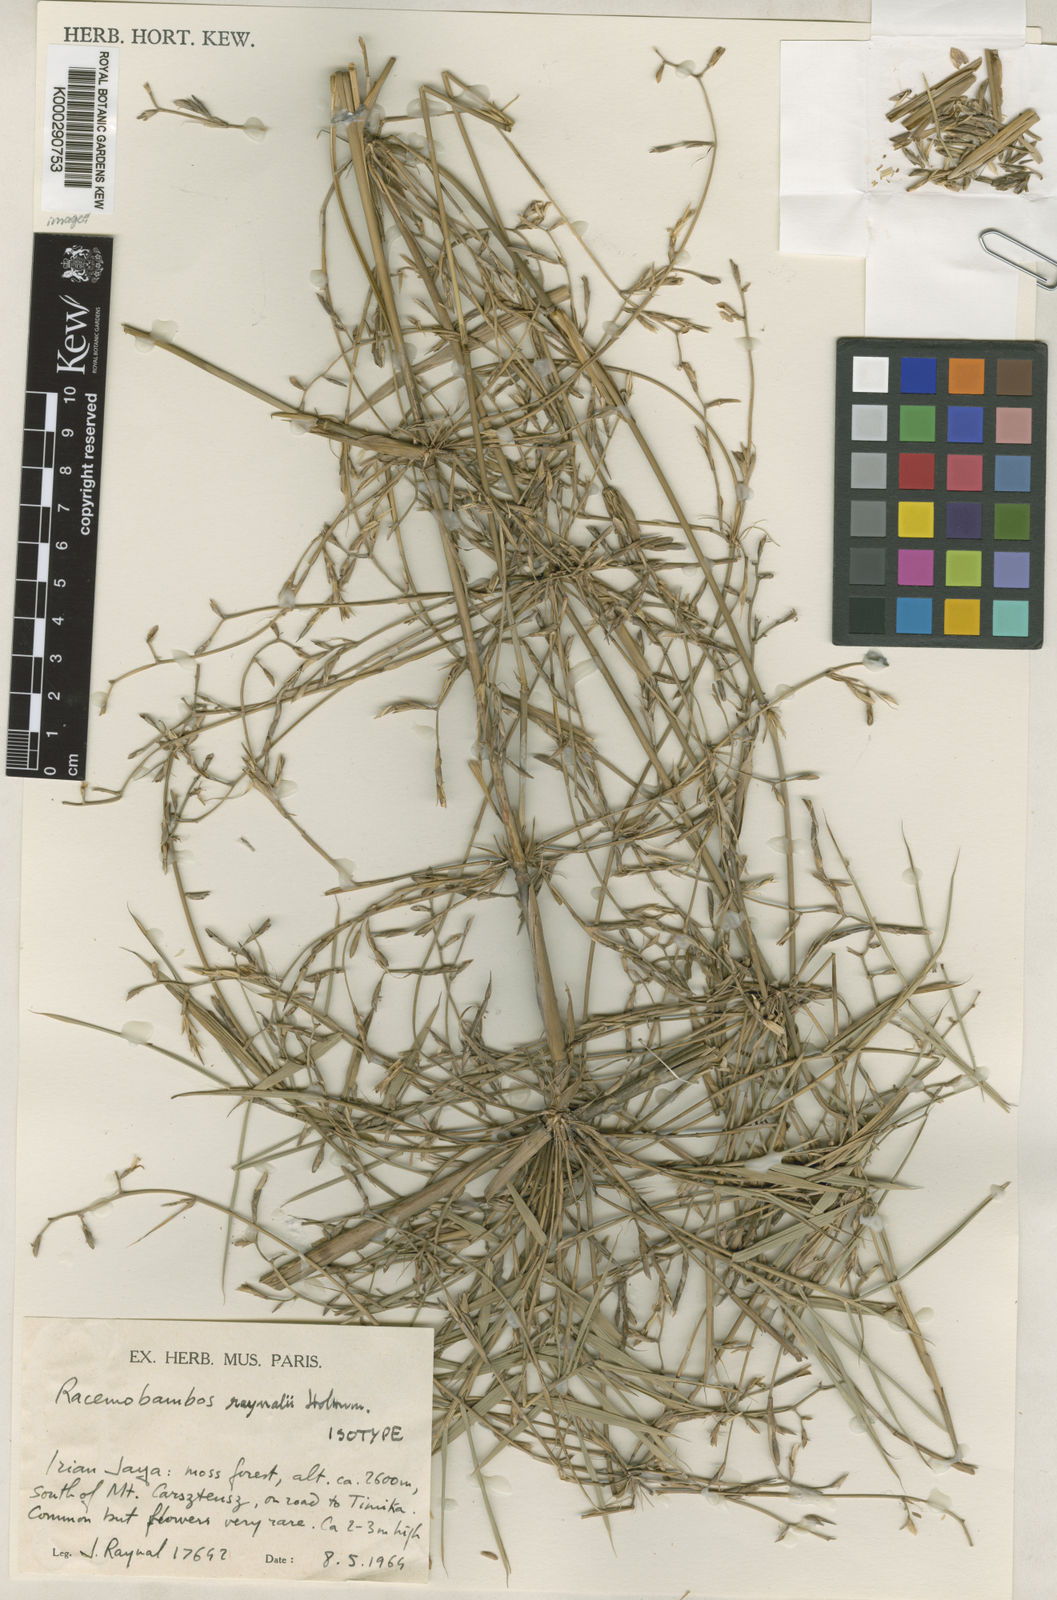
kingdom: Plantae
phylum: Tracheophyta
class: Liliopsida
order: Poales
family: Poaceae
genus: Racemobambos
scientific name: Racemobambos raynalii
